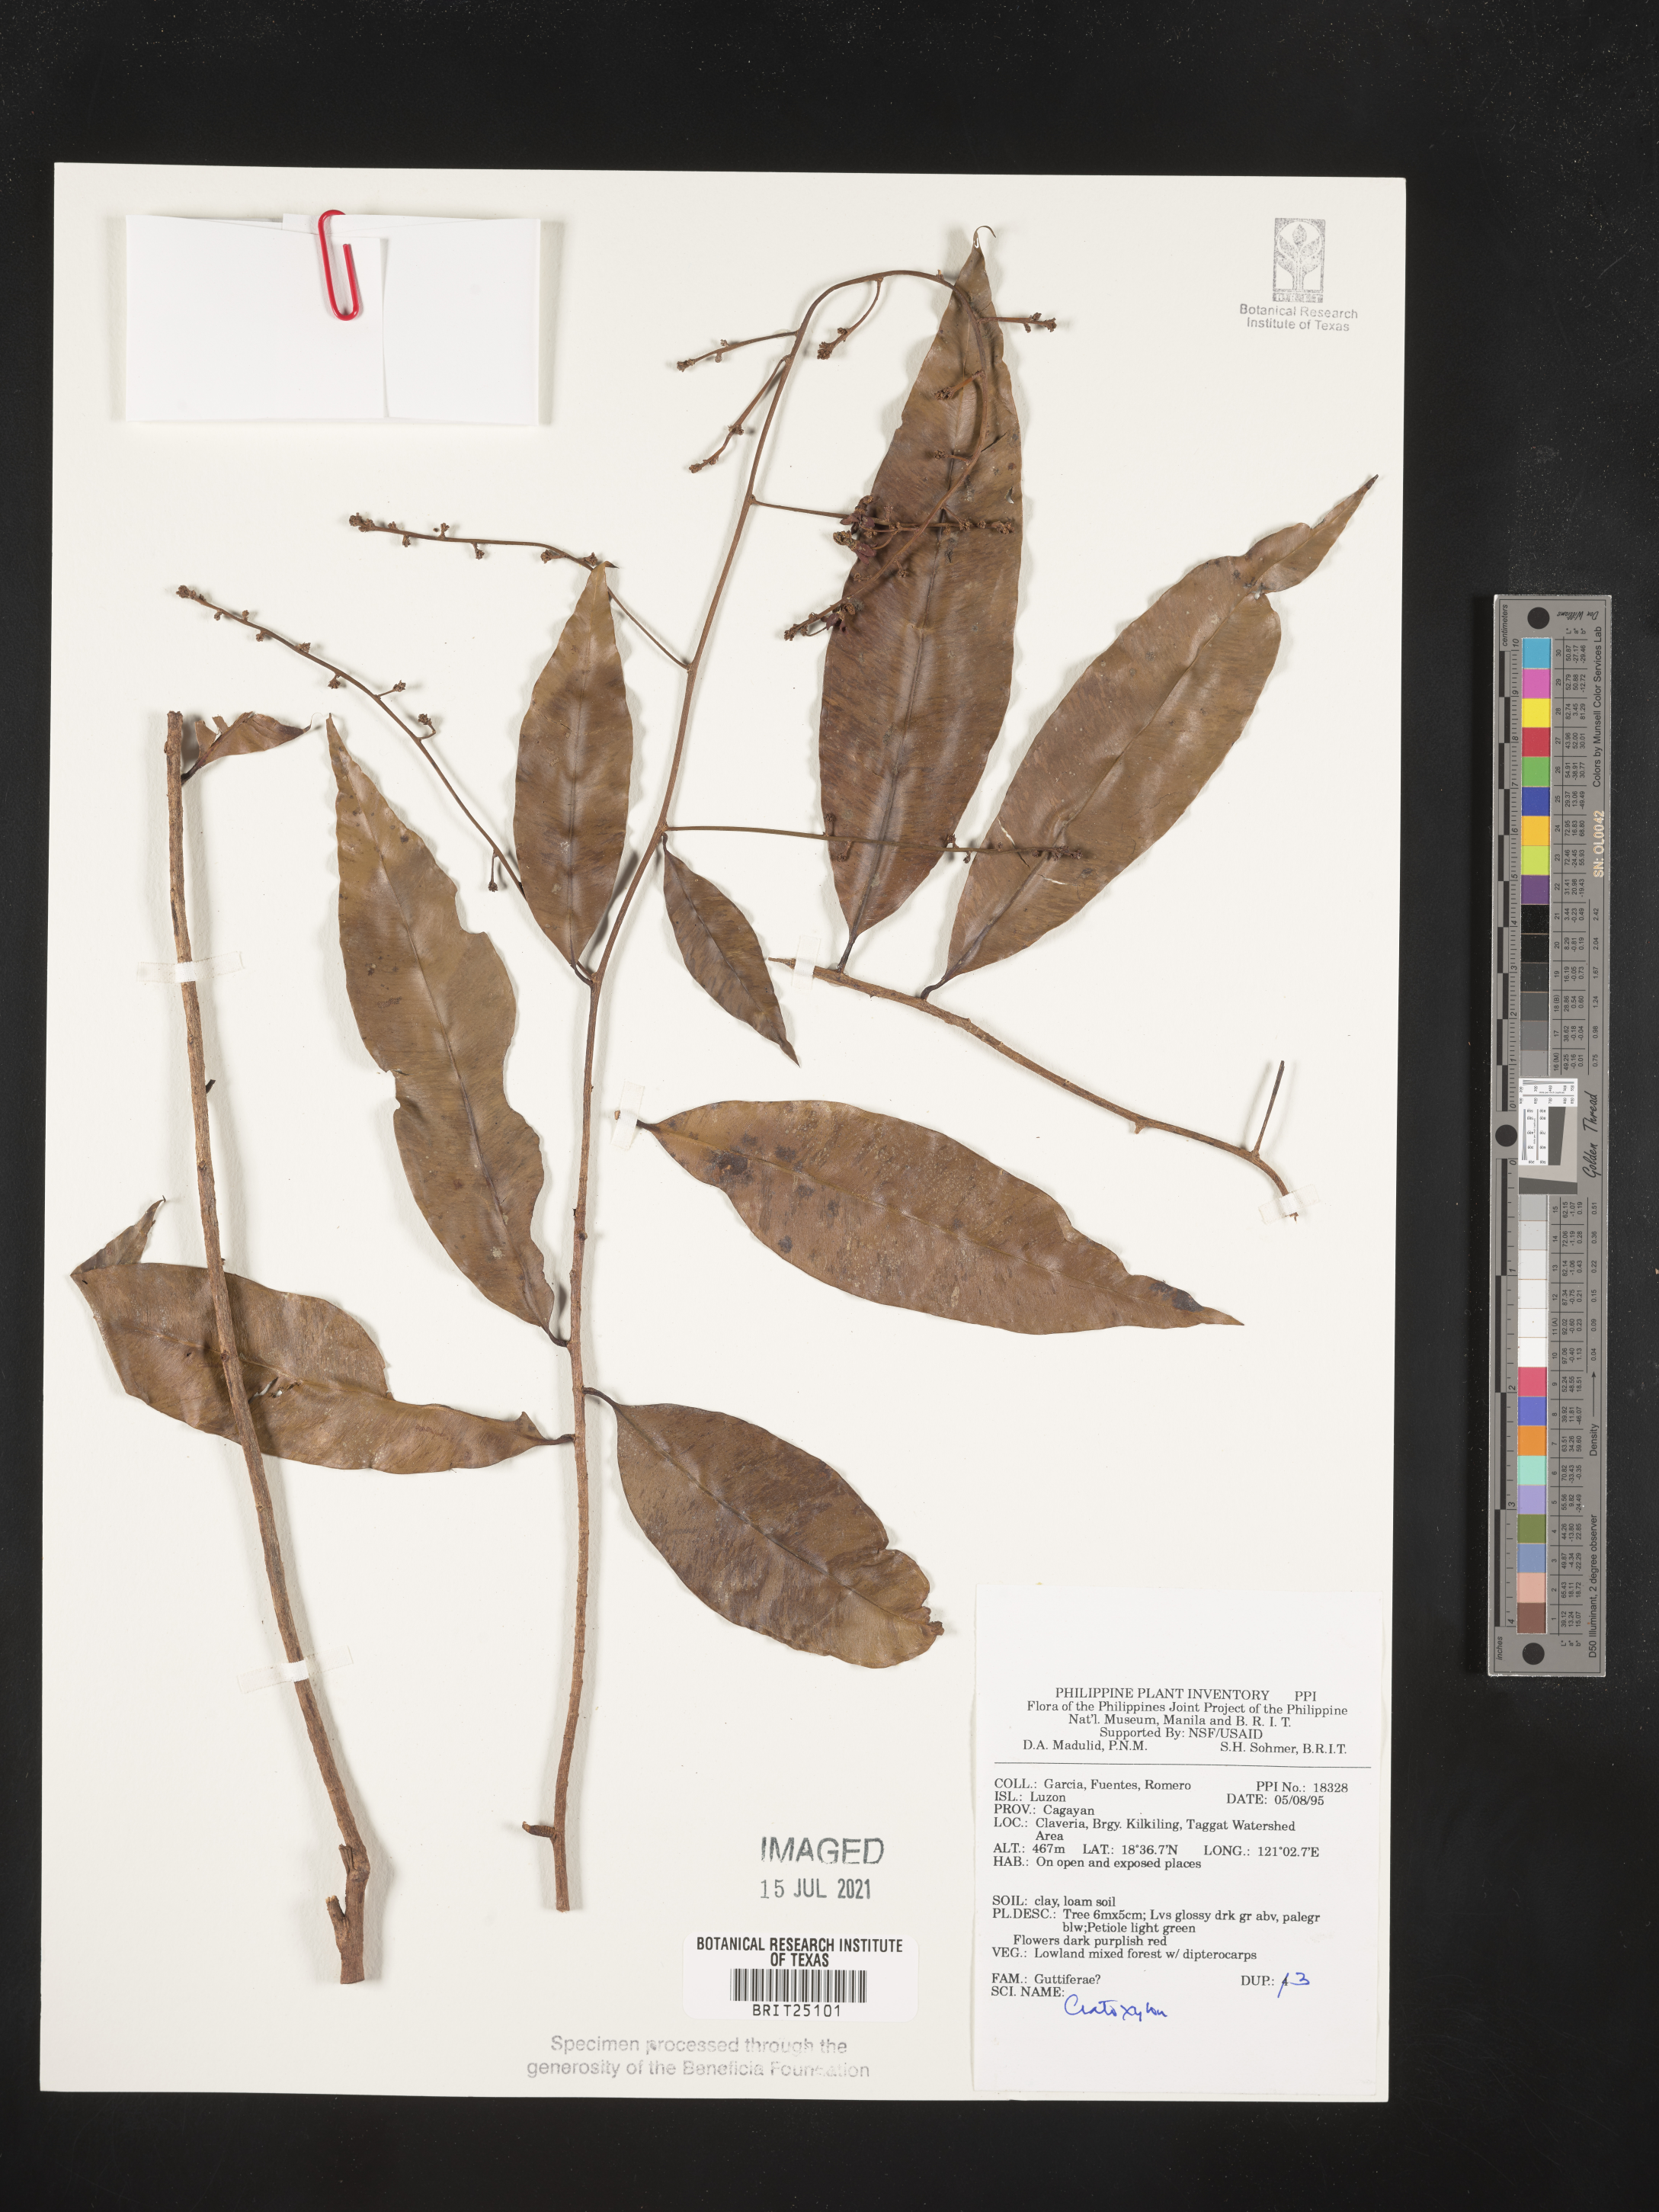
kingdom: Plantae
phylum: Tracheophyta
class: Magnoliopsida
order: Malpighiales
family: Hypericaceae
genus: Cratoxylum
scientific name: Cratoxylum
